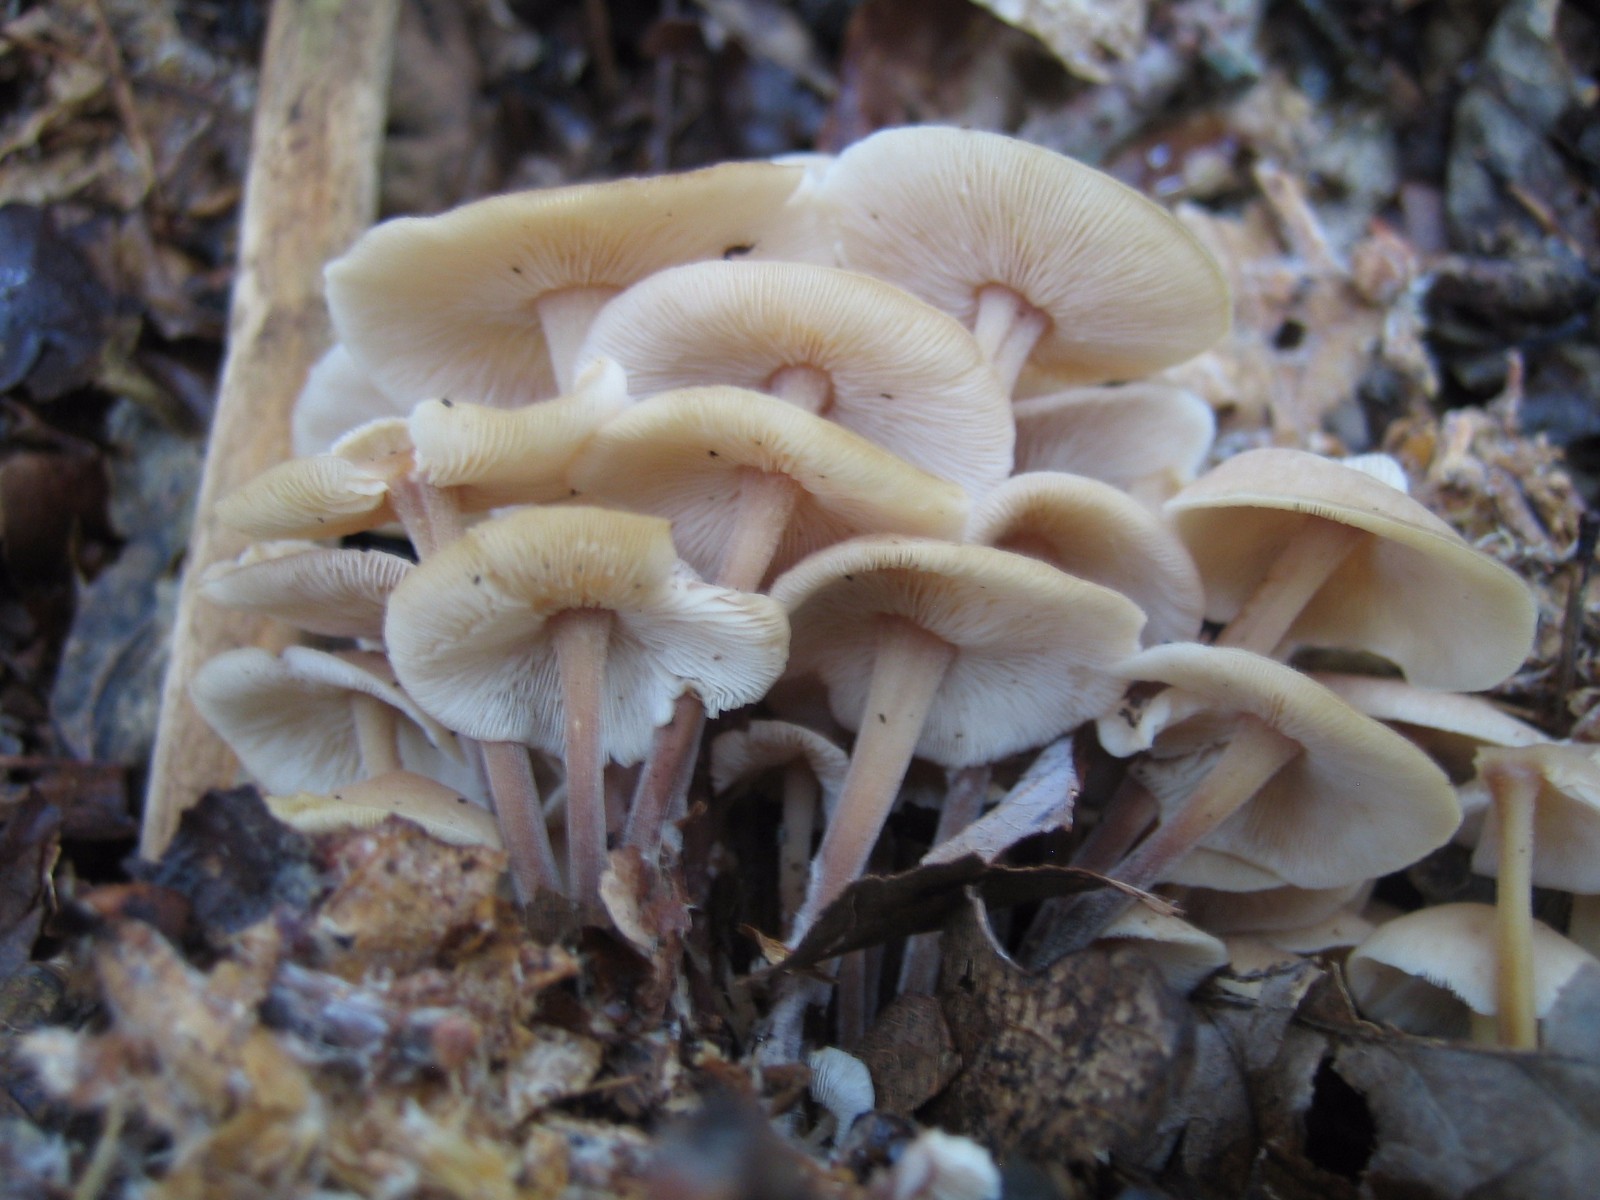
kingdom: Fungi
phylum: Basidiomycota
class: Agaricomycetes
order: Agaricales
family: Omphalotaceae
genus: Collybiopsis
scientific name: Collybiopsis confluens
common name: knippe-fladhat
